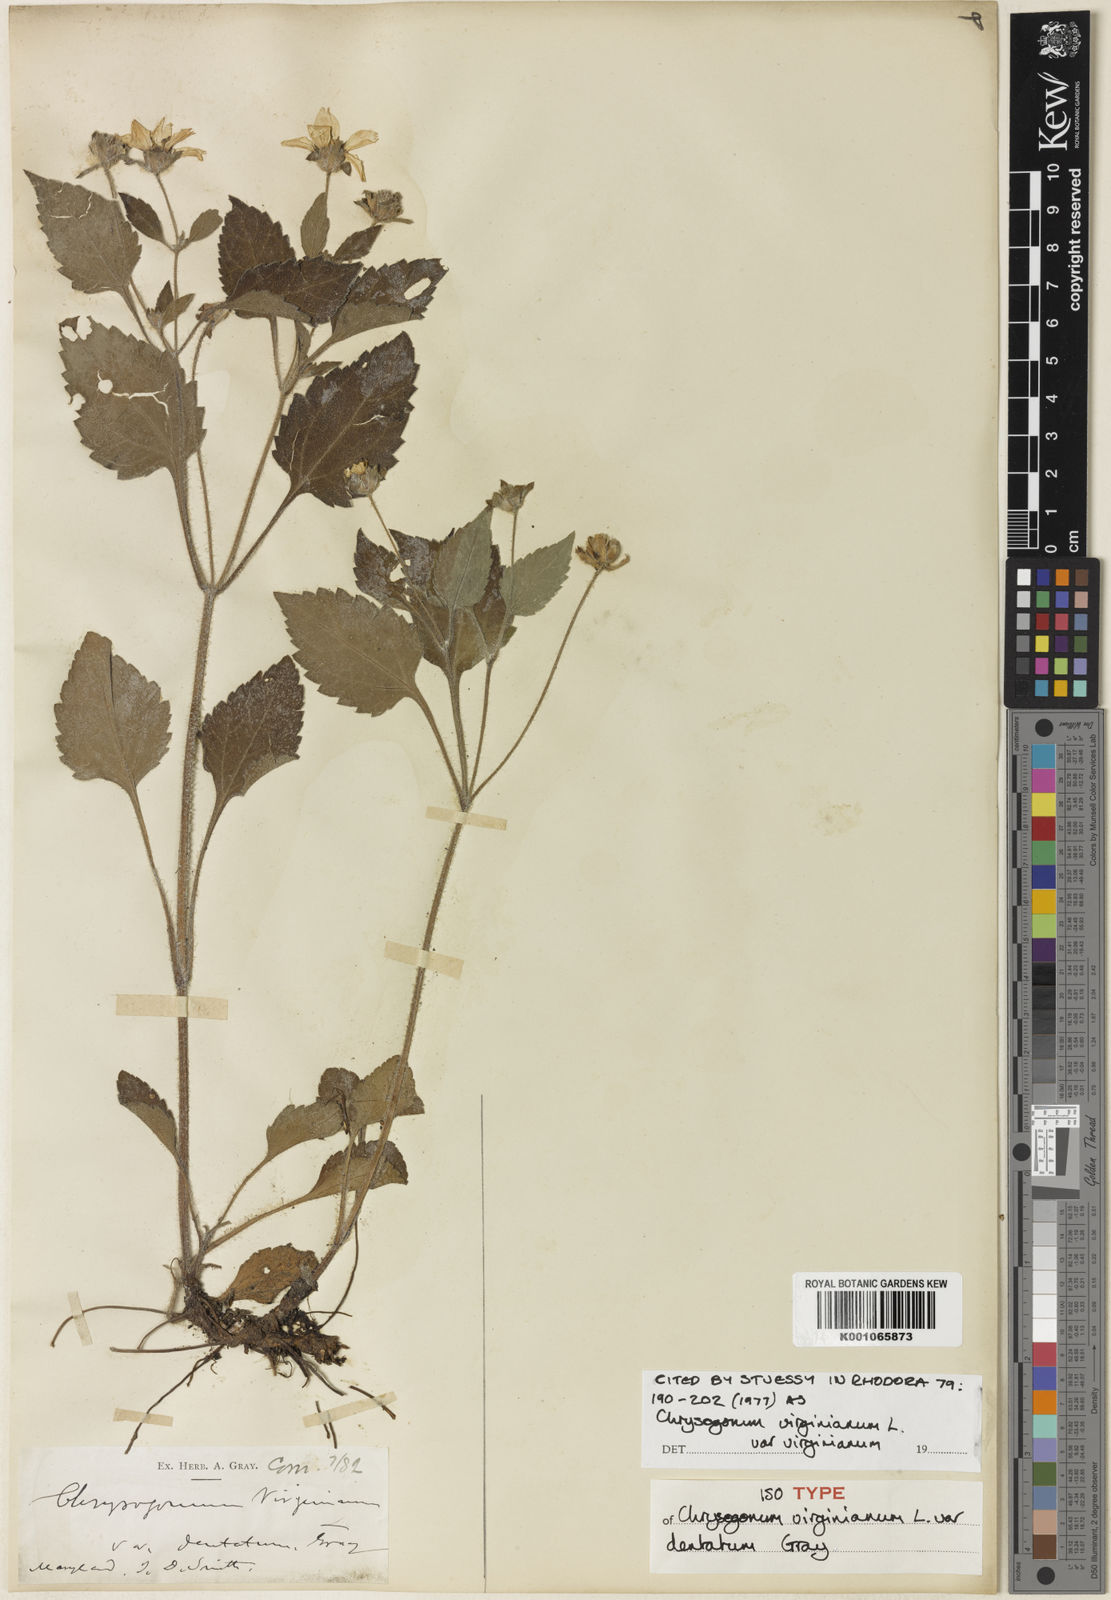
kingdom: Plantae
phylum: Tracheophyta
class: Magnoliopsida
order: Asterales
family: Asteraceae
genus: Chrysogonum
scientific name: Chrysogonum virginianum
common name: Golden-knee
